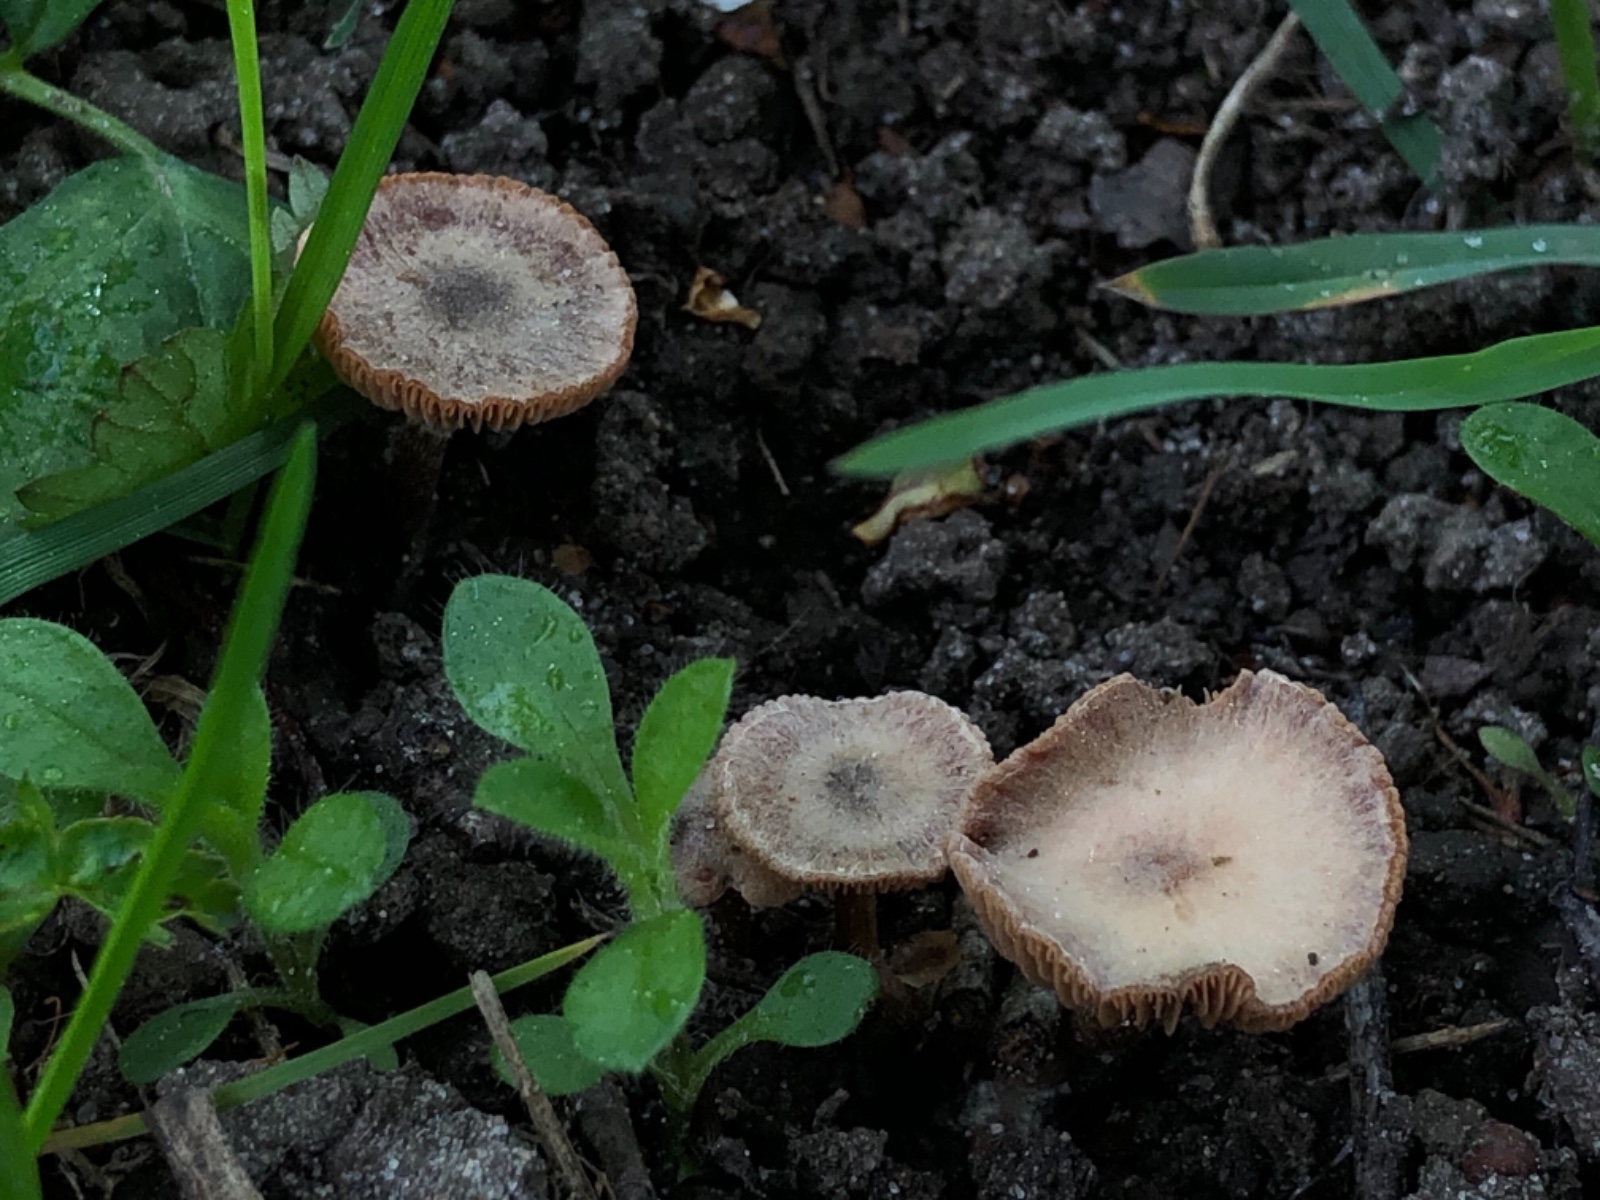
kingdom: Fungi
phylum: Basidiomycota
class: Agaricomycetes
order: Agaricales
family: Tubariaceae
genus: Tubaria
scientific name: Tubaria furfuracea
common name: kliddet fnughat
